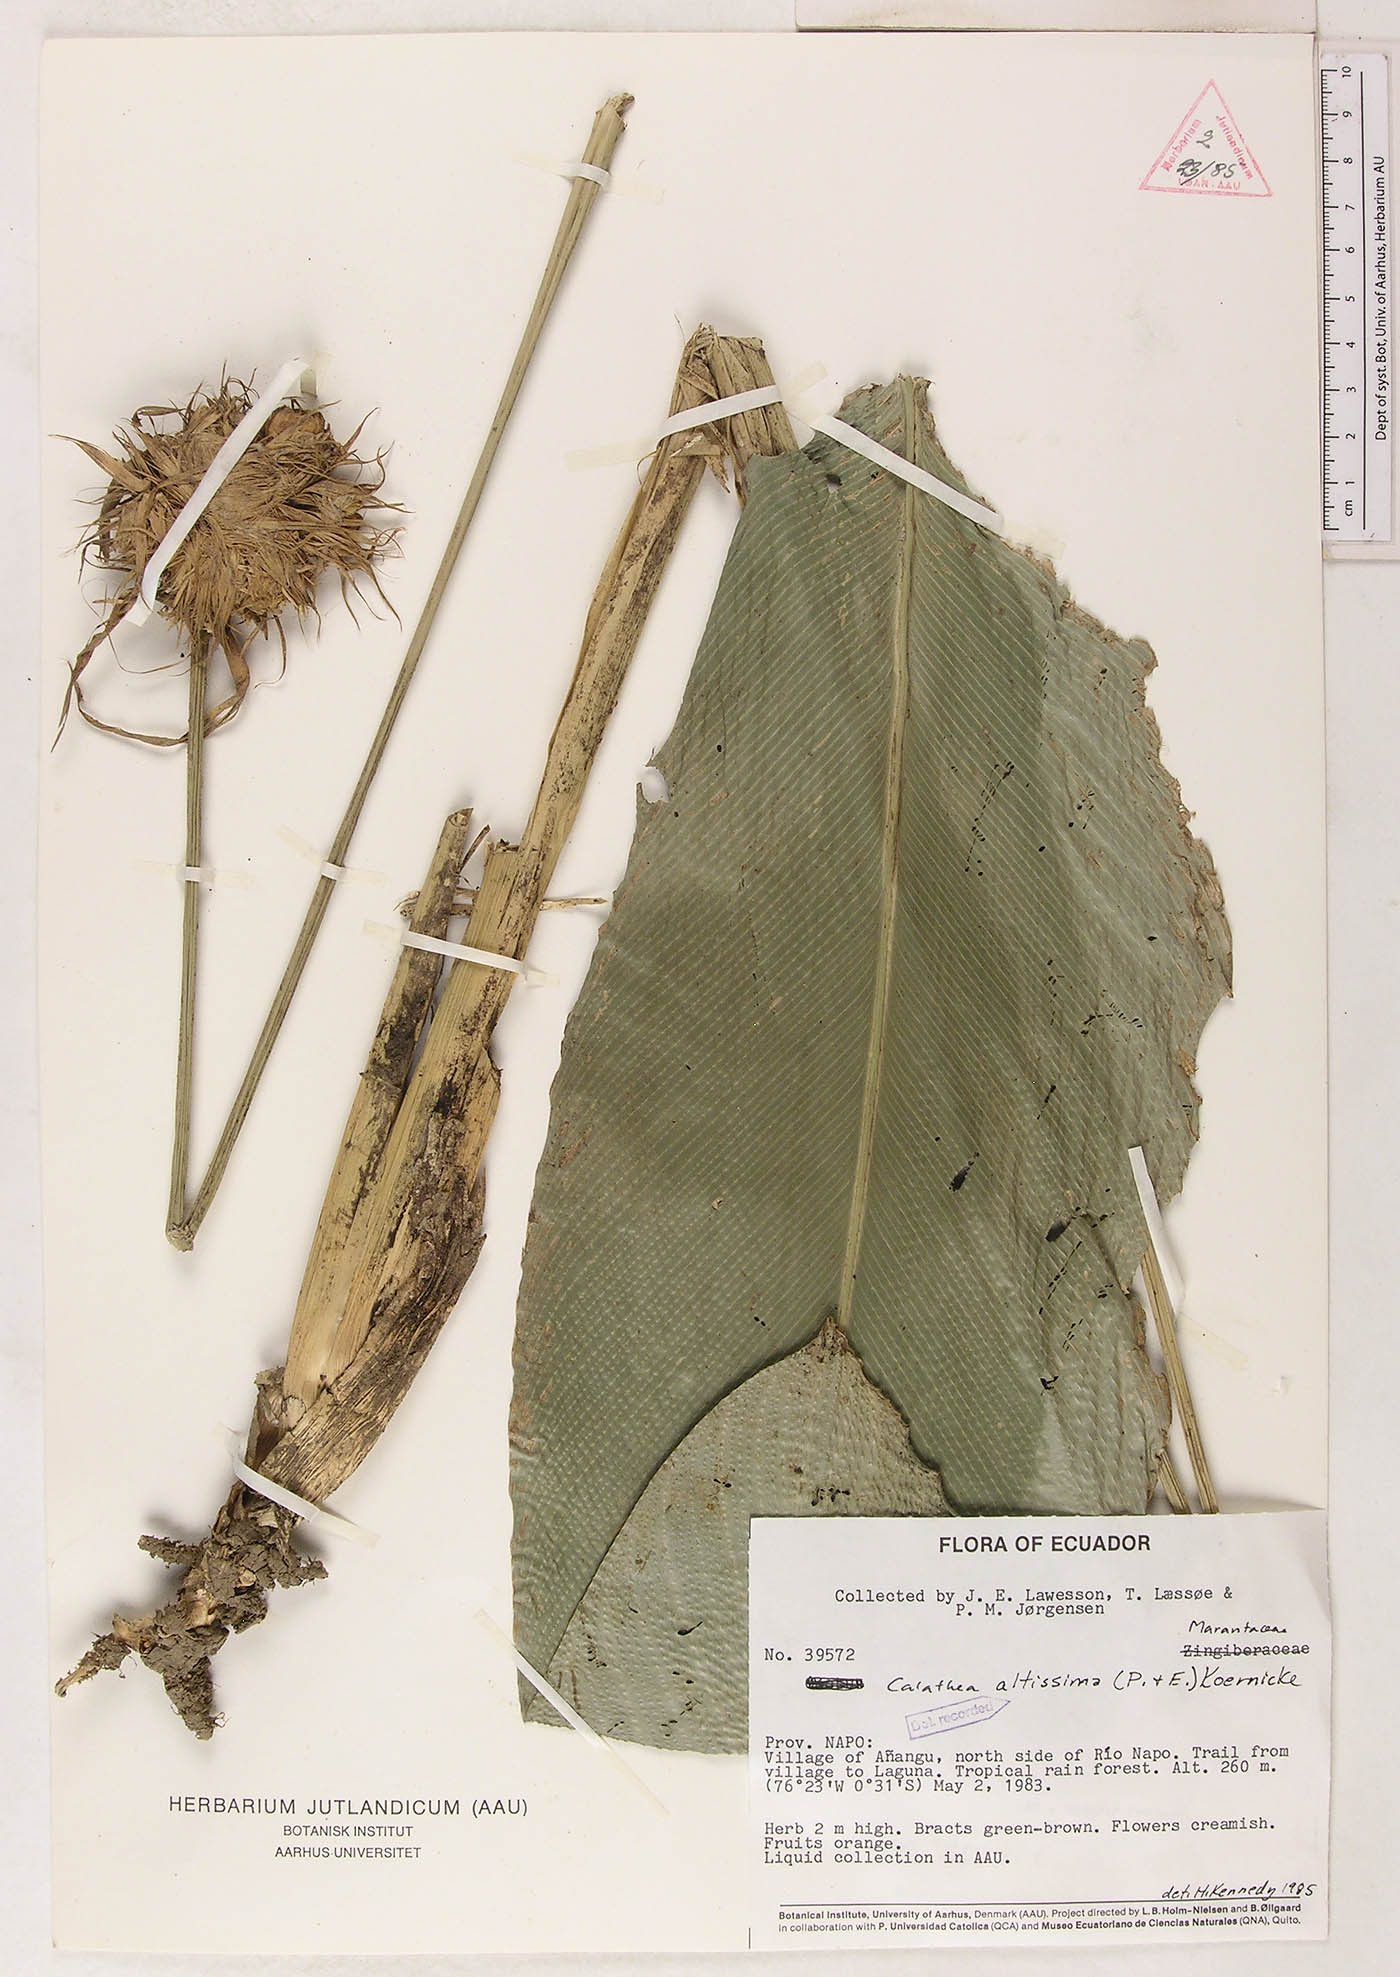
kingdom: Plantae
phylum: Tracheophyta
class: Liliopsida
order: Zingiberales
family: Marantaceae
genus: Goeppertia
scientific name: Goeppertia altissima
